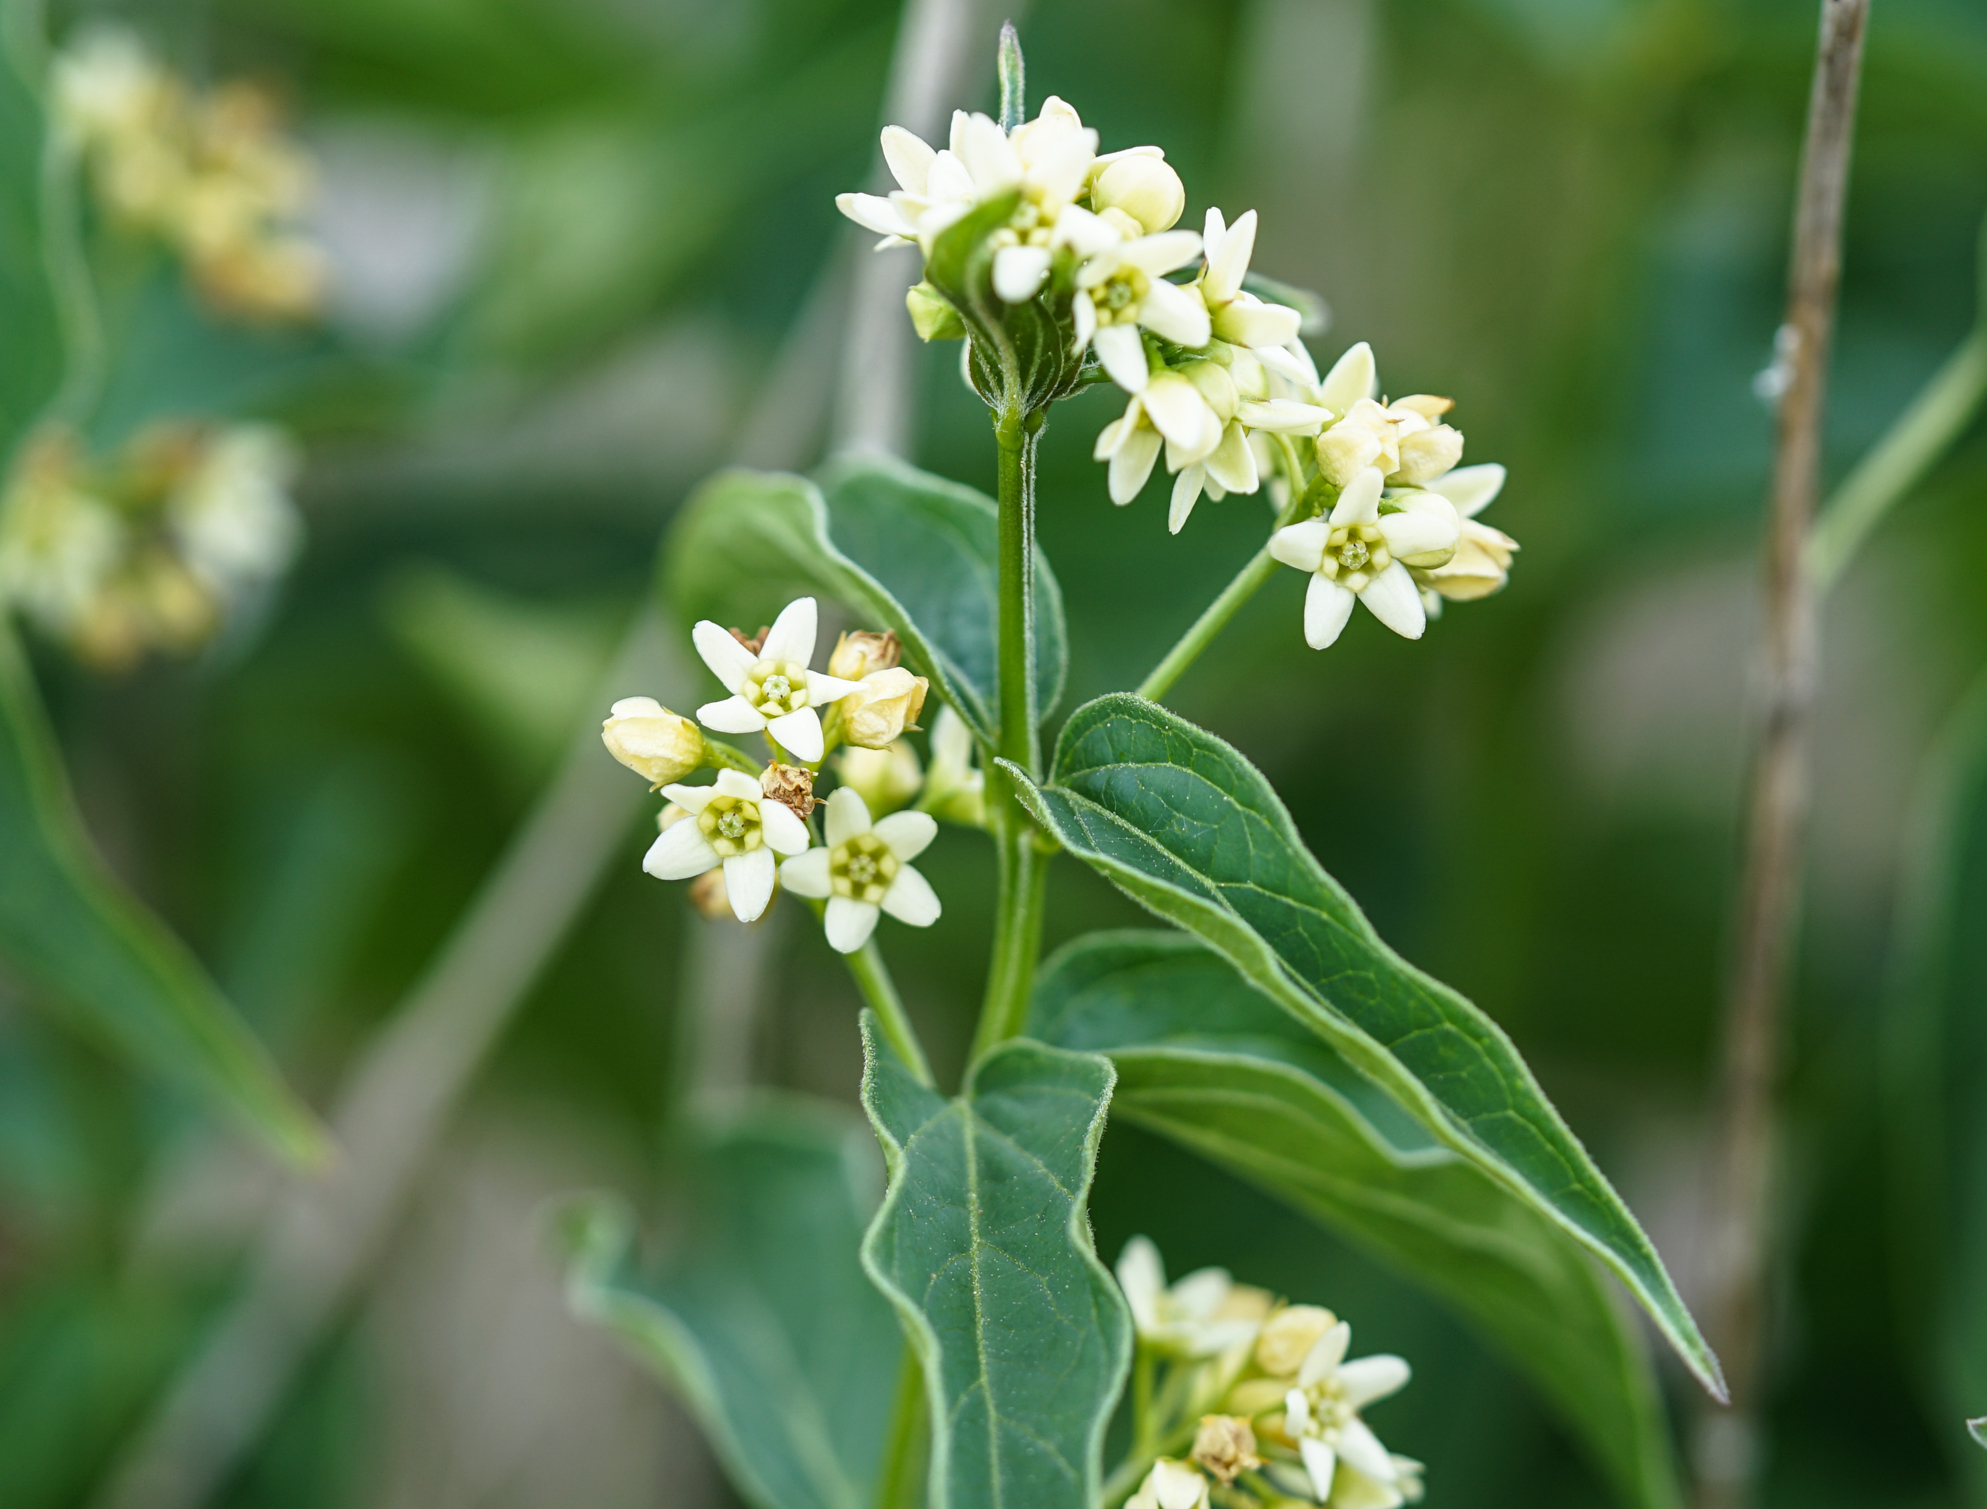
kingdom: Plantae
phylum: Tracheophyta
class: Magnoliopsida
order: Gentianales
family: Apocynaceae
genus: Vincetoxicum
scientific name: Vincetoxicum hirundinaria
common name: White swallowwort
